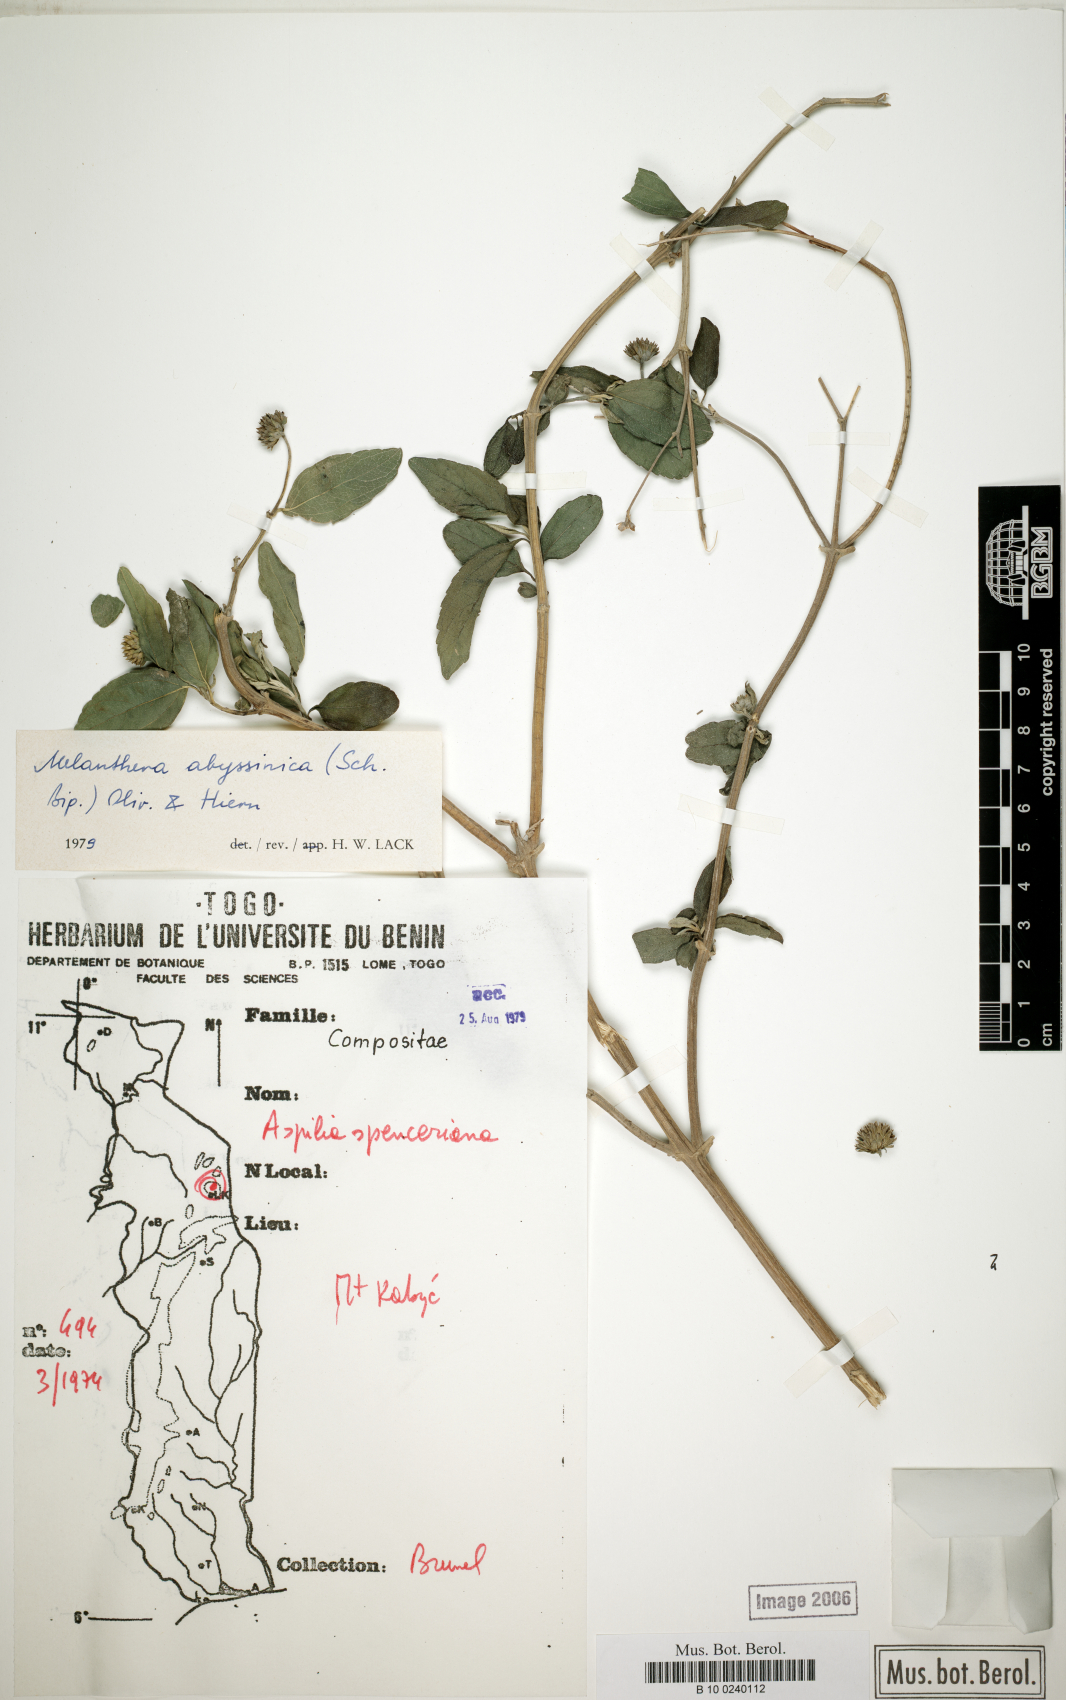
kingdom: Plantae
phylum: Tracheophyta
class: Magnoliopsida
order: Asterales
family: Asteraceae
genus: Lipotriche
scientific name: Lipotriche abyssinica
